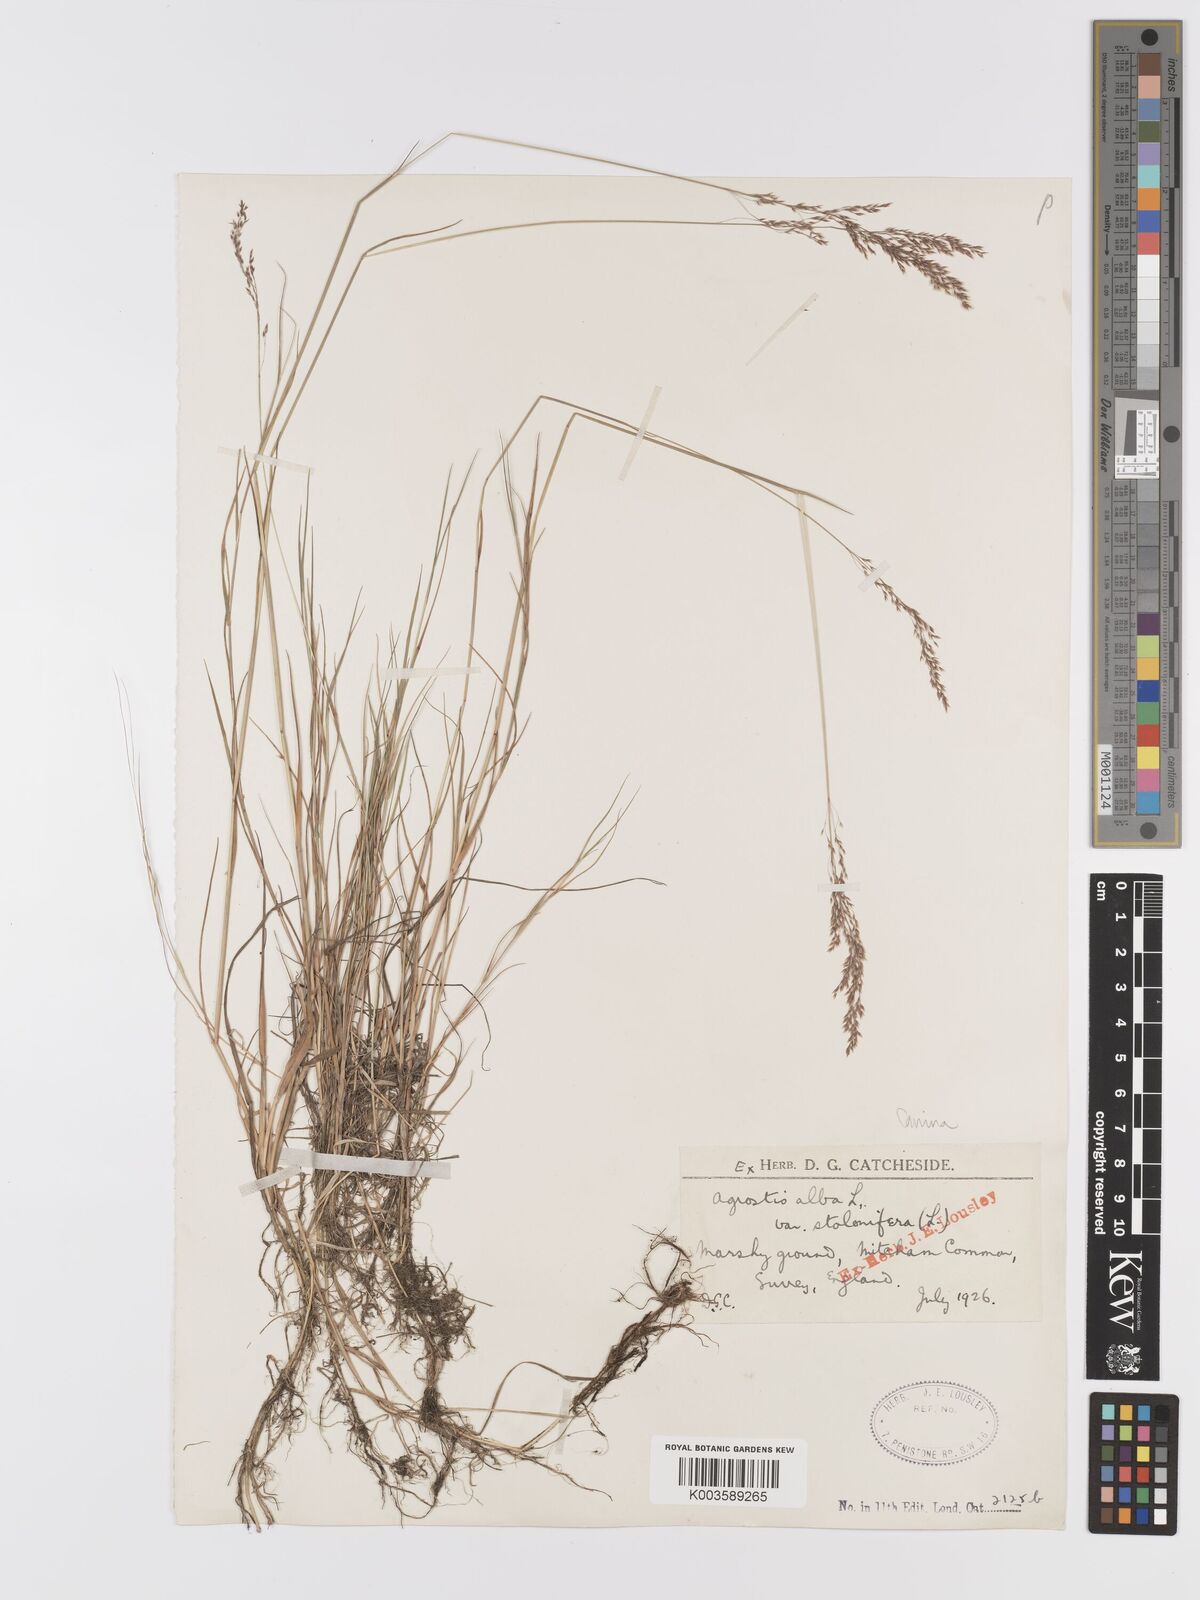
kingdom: Plantae
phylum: Tracheophyta
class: Liliopsida
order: Poales
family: Poaceae
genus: Agrostis
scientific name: Agrostis canina
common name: Velvet bent
